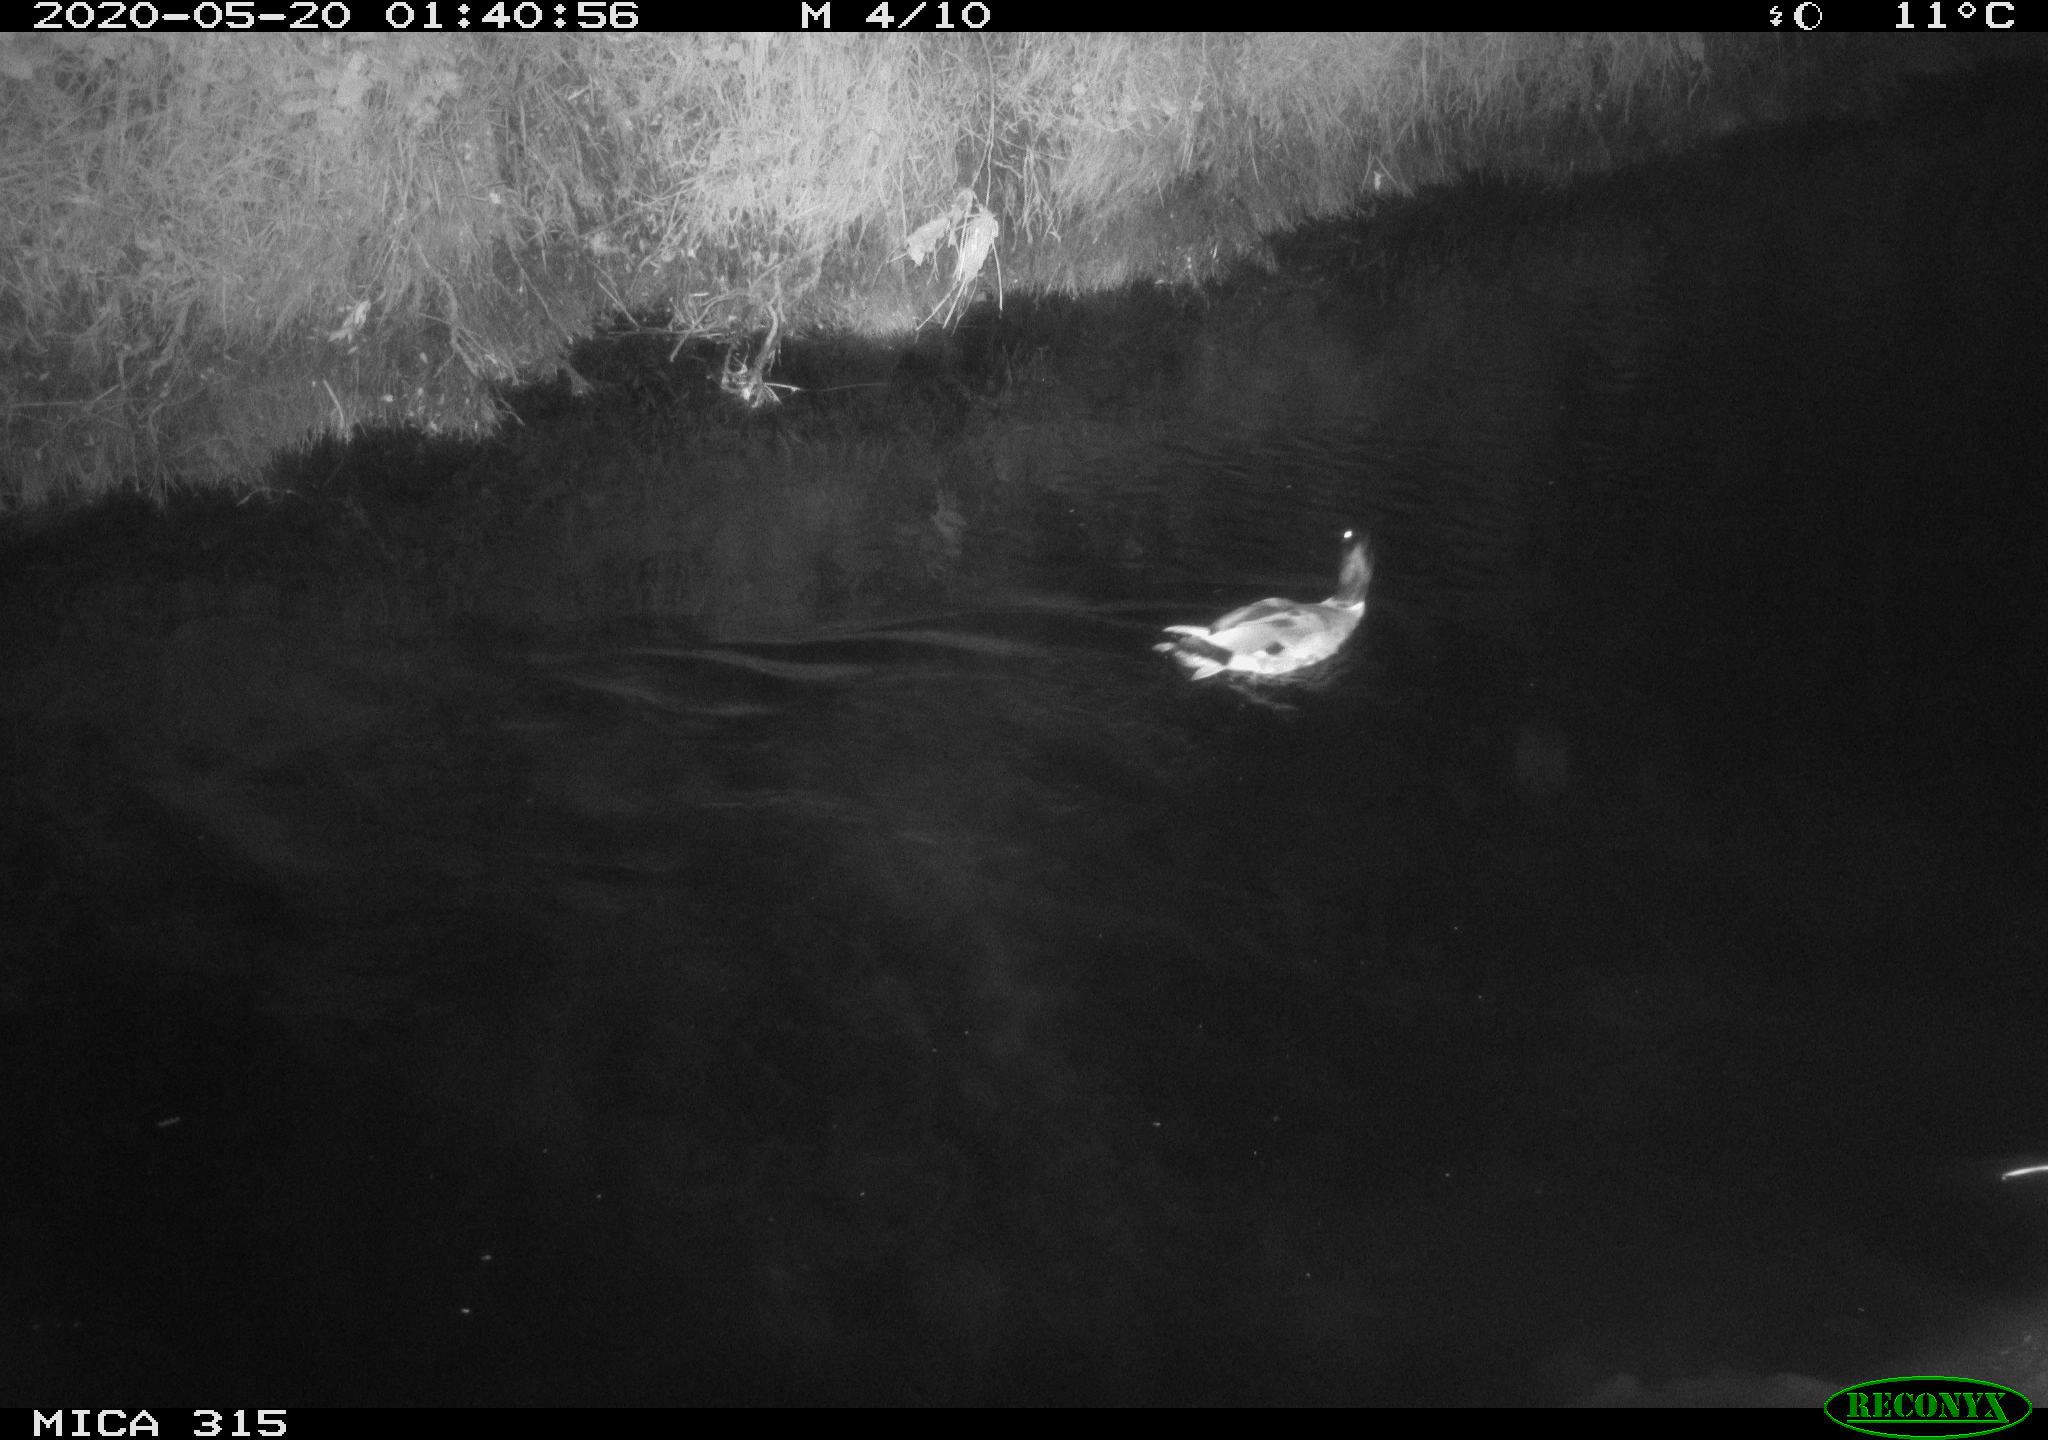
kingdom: Animalia
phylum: Chordata
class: Aves
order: Anseriformes
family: Anatidae
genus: Anas
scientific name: Anas platyrhynchos
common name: Mallard
